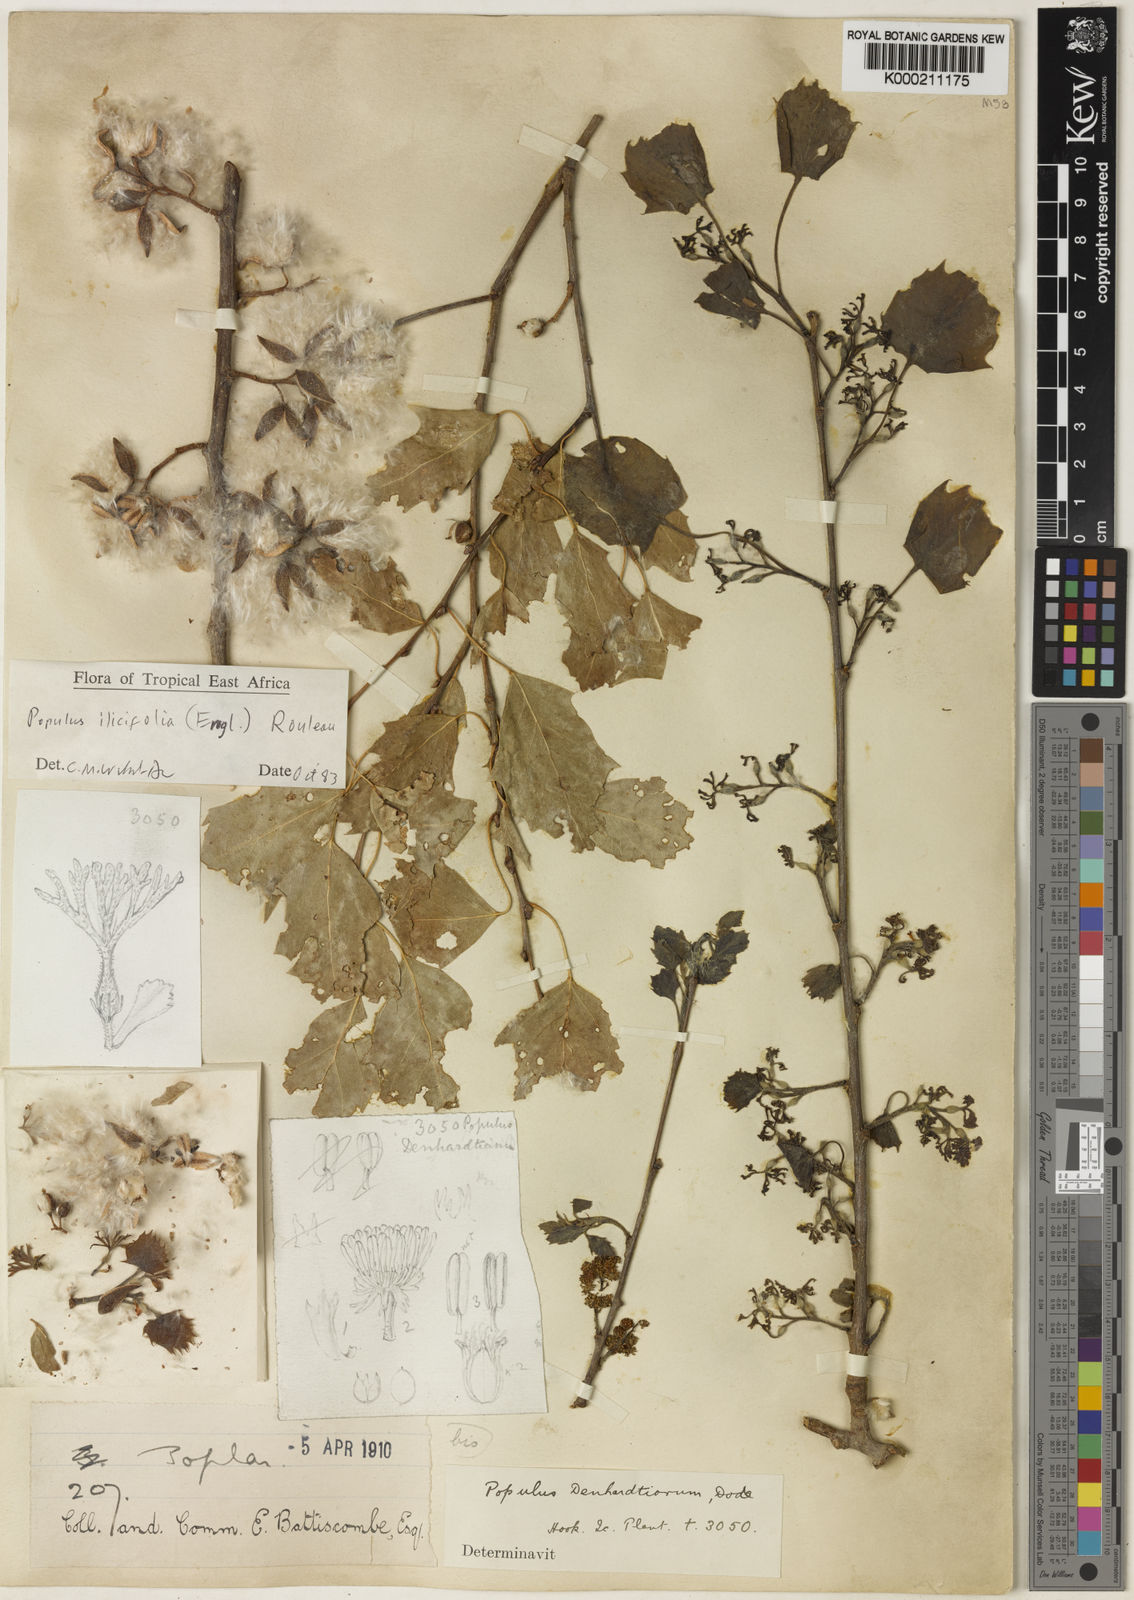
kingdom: Plantae
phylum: Tracheophyta
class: Magnoliopsida
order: Malpighiales
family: Salicaceae
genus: Populus
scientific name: Populus ilicifolia
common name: Tana river poplar
